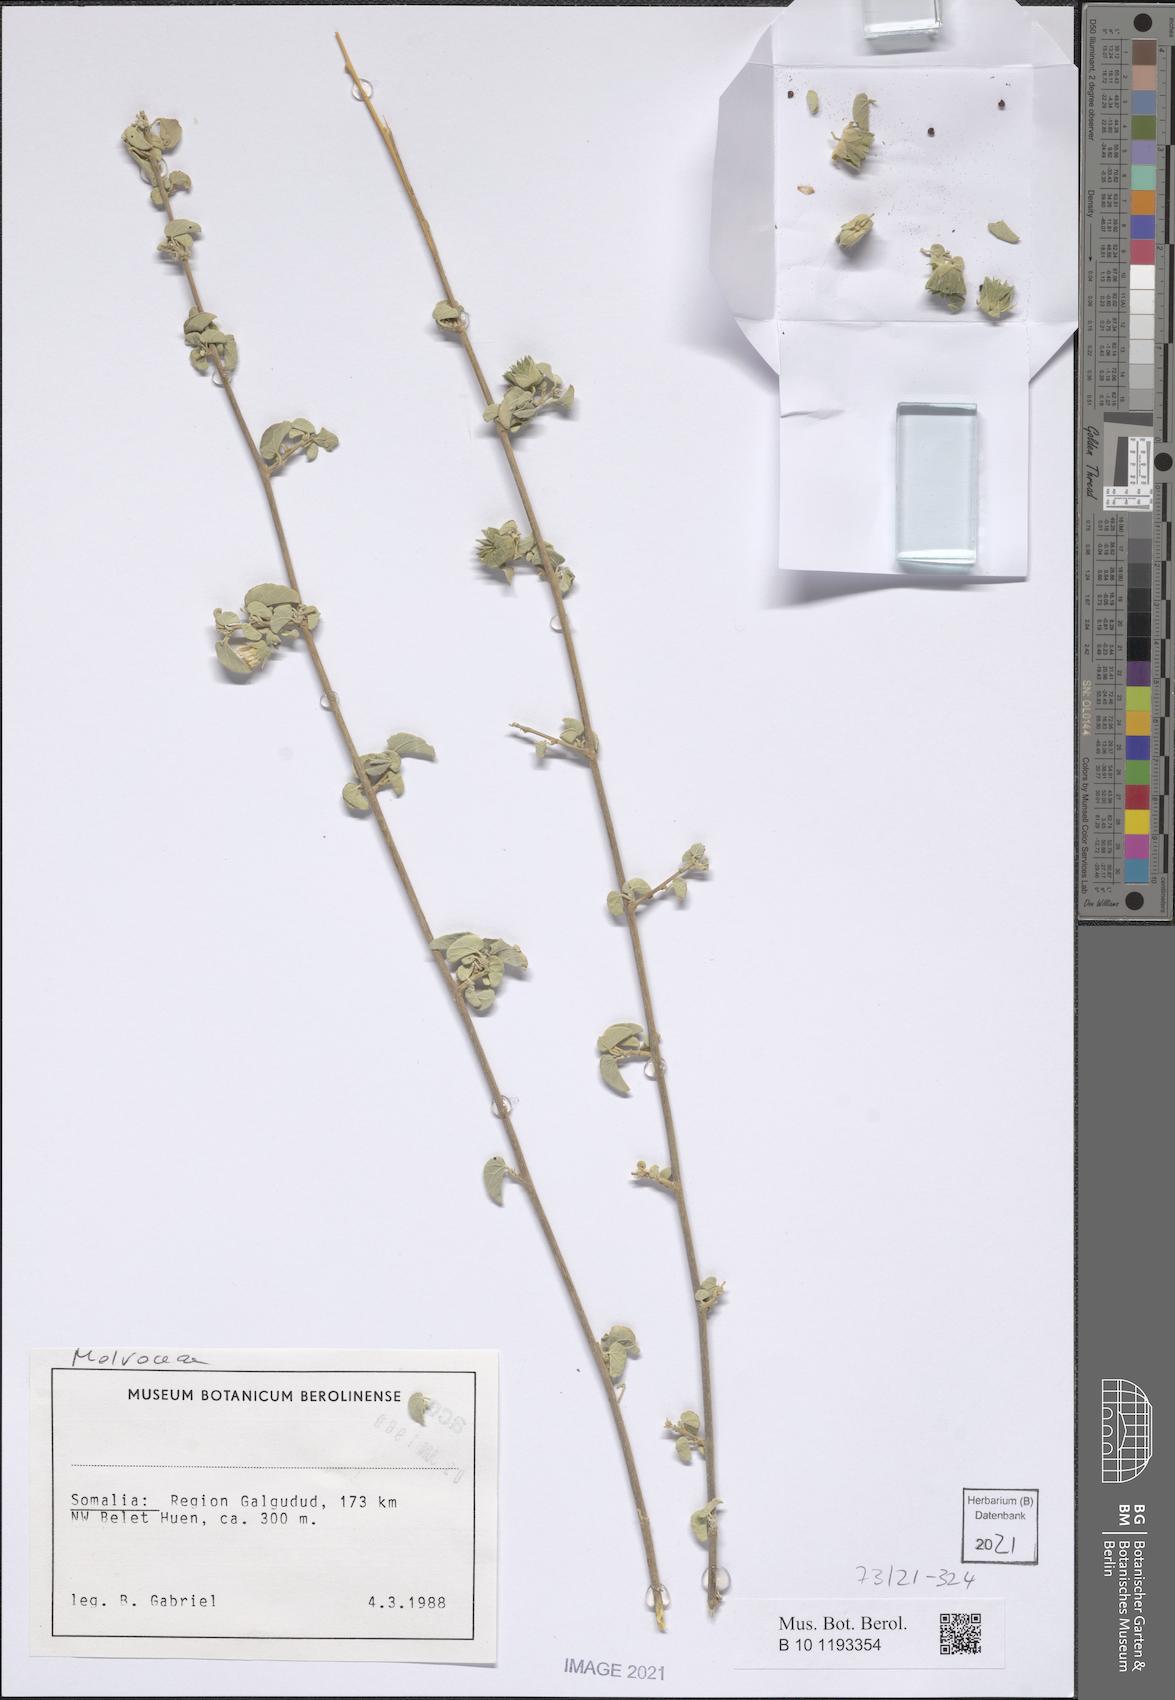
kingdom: Plantae
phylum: Tracheophyta
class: Magnoliopsida
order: Malvales
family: Malvaceae
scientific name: Malvaceae
